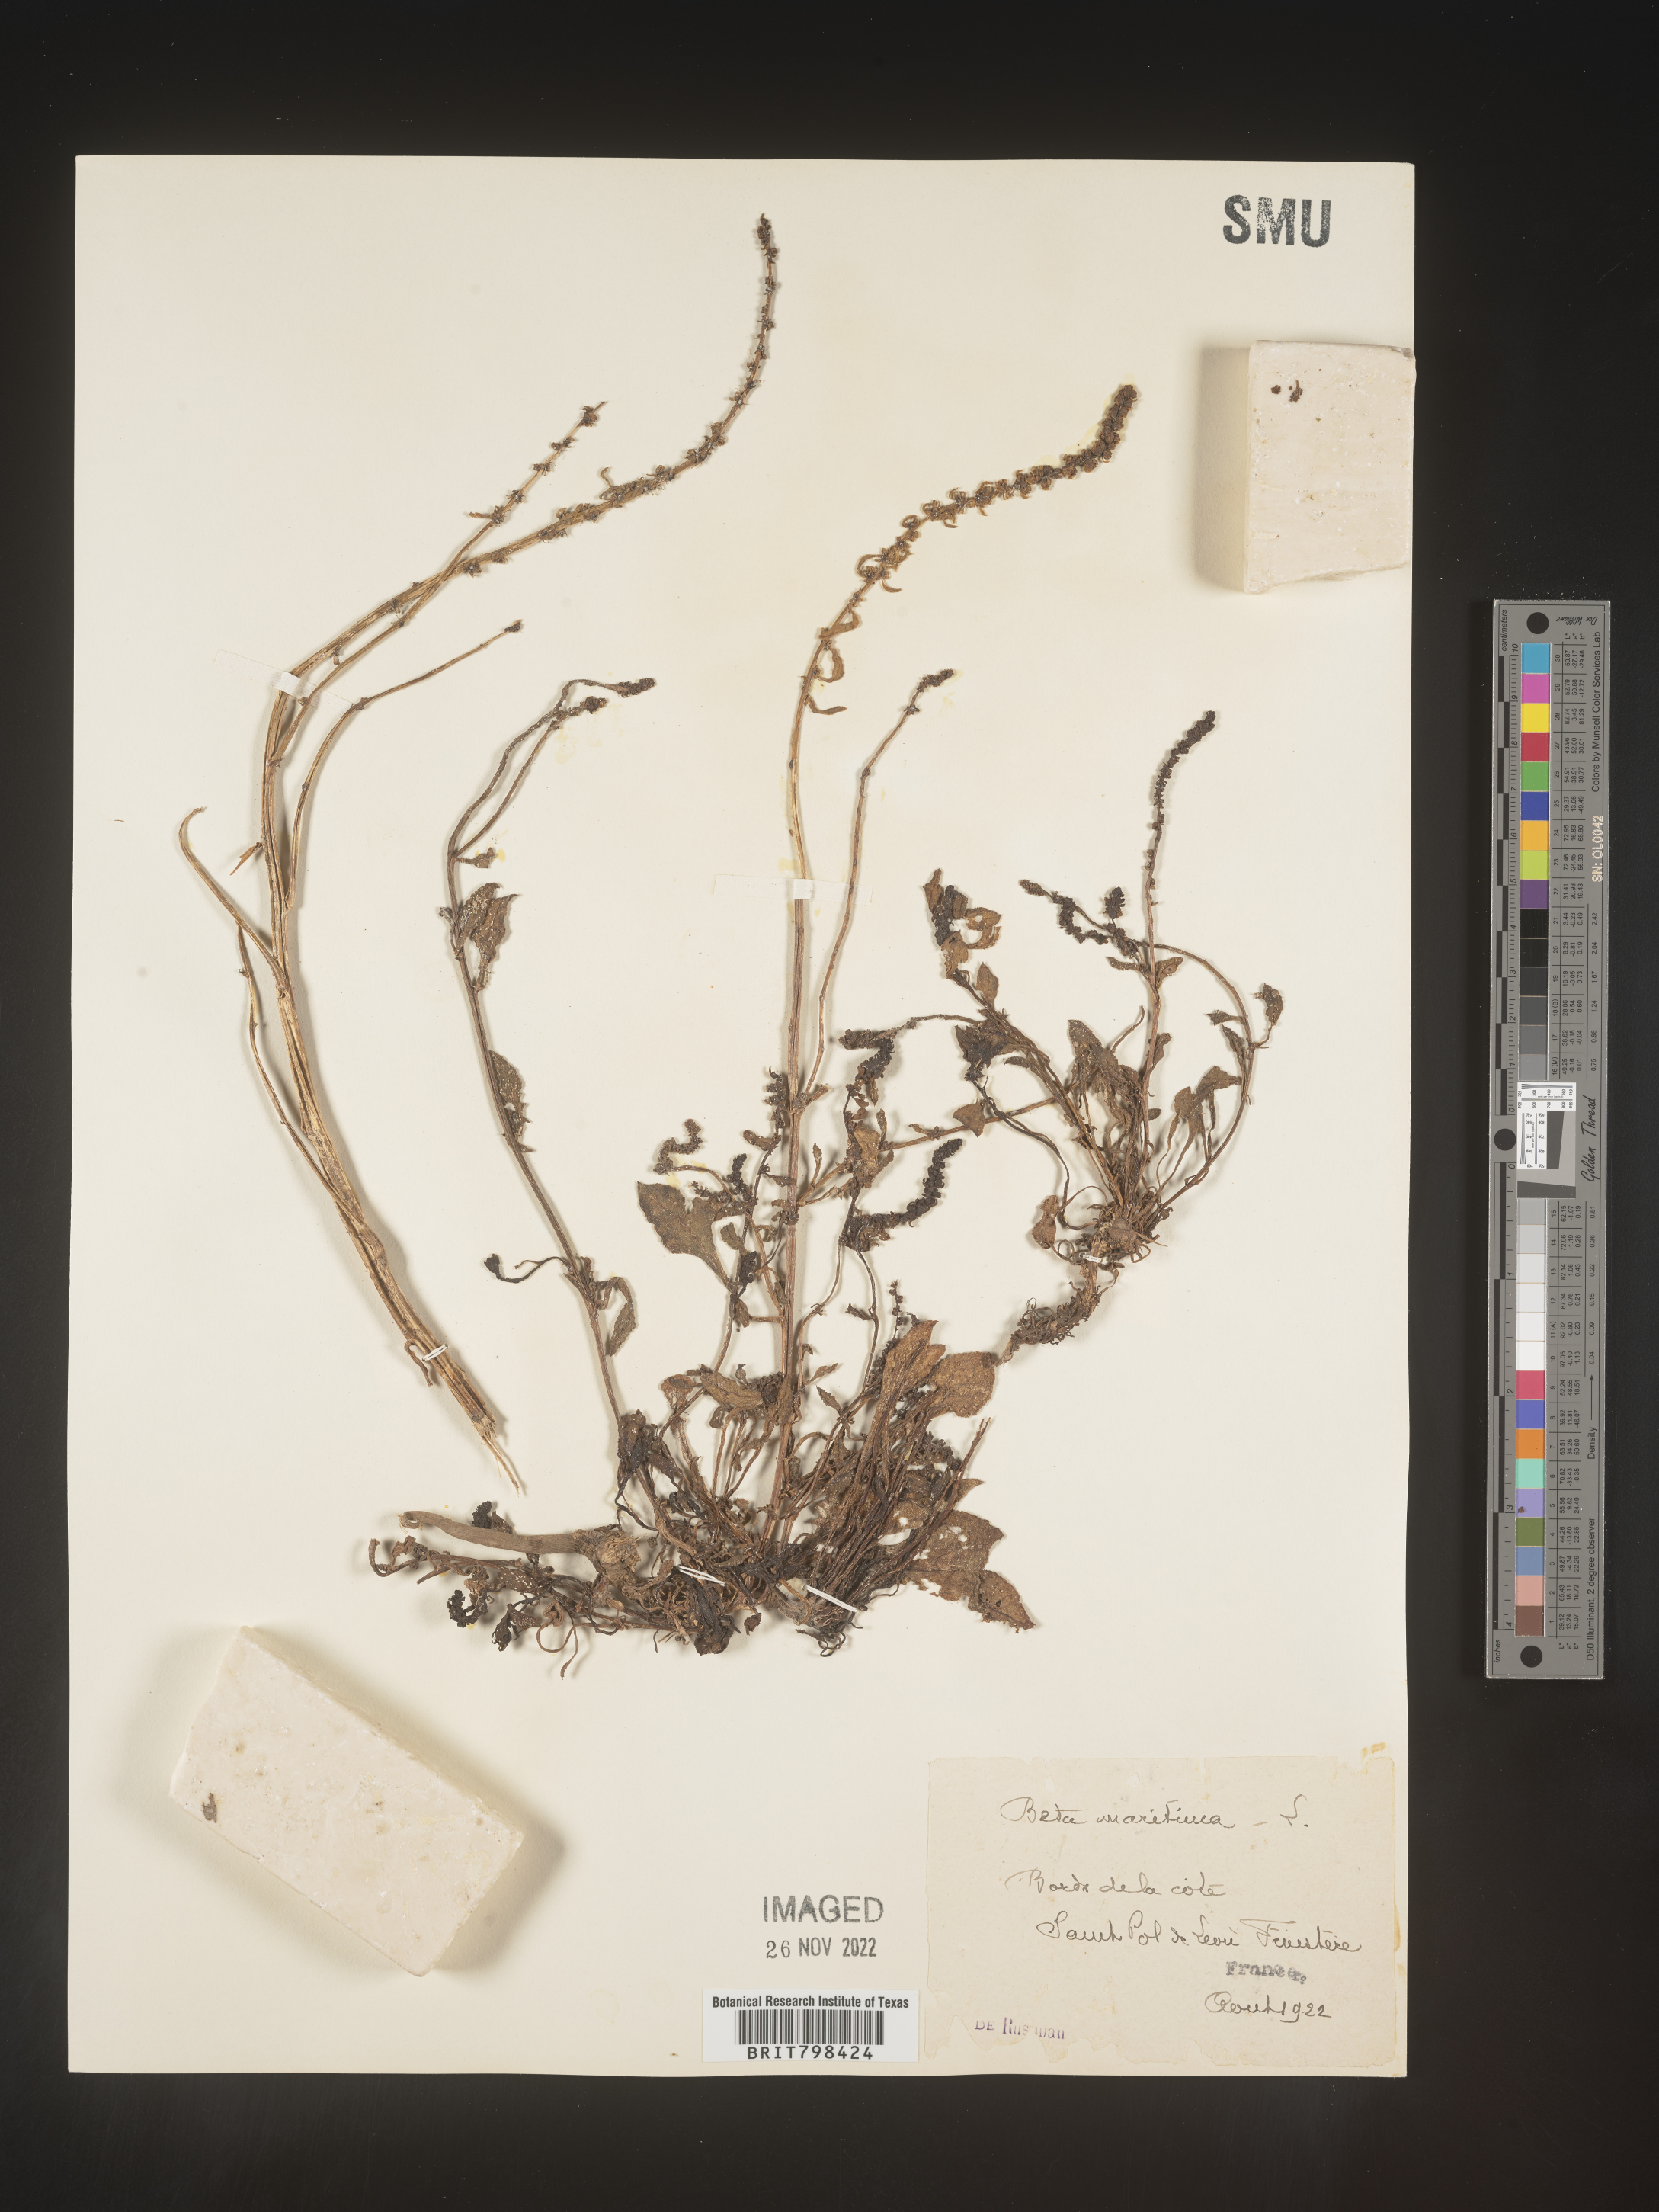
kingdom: Plantae
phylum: Tracheophyta
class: Magnoliopsida
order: Caryophyllales
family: Amaranthaceae
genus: Beta
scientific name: Beta
